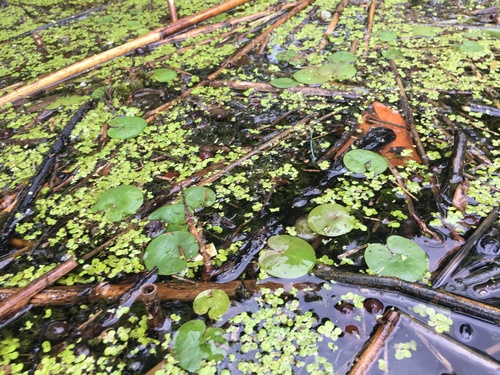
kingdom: Plantae
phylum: Tracheophyta
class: Liliopsida
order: Alismatales
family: Hydrocharitaceae
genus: Hydrocharis
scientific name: Hydrocharis morsus-ranae
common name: European frog-bit
